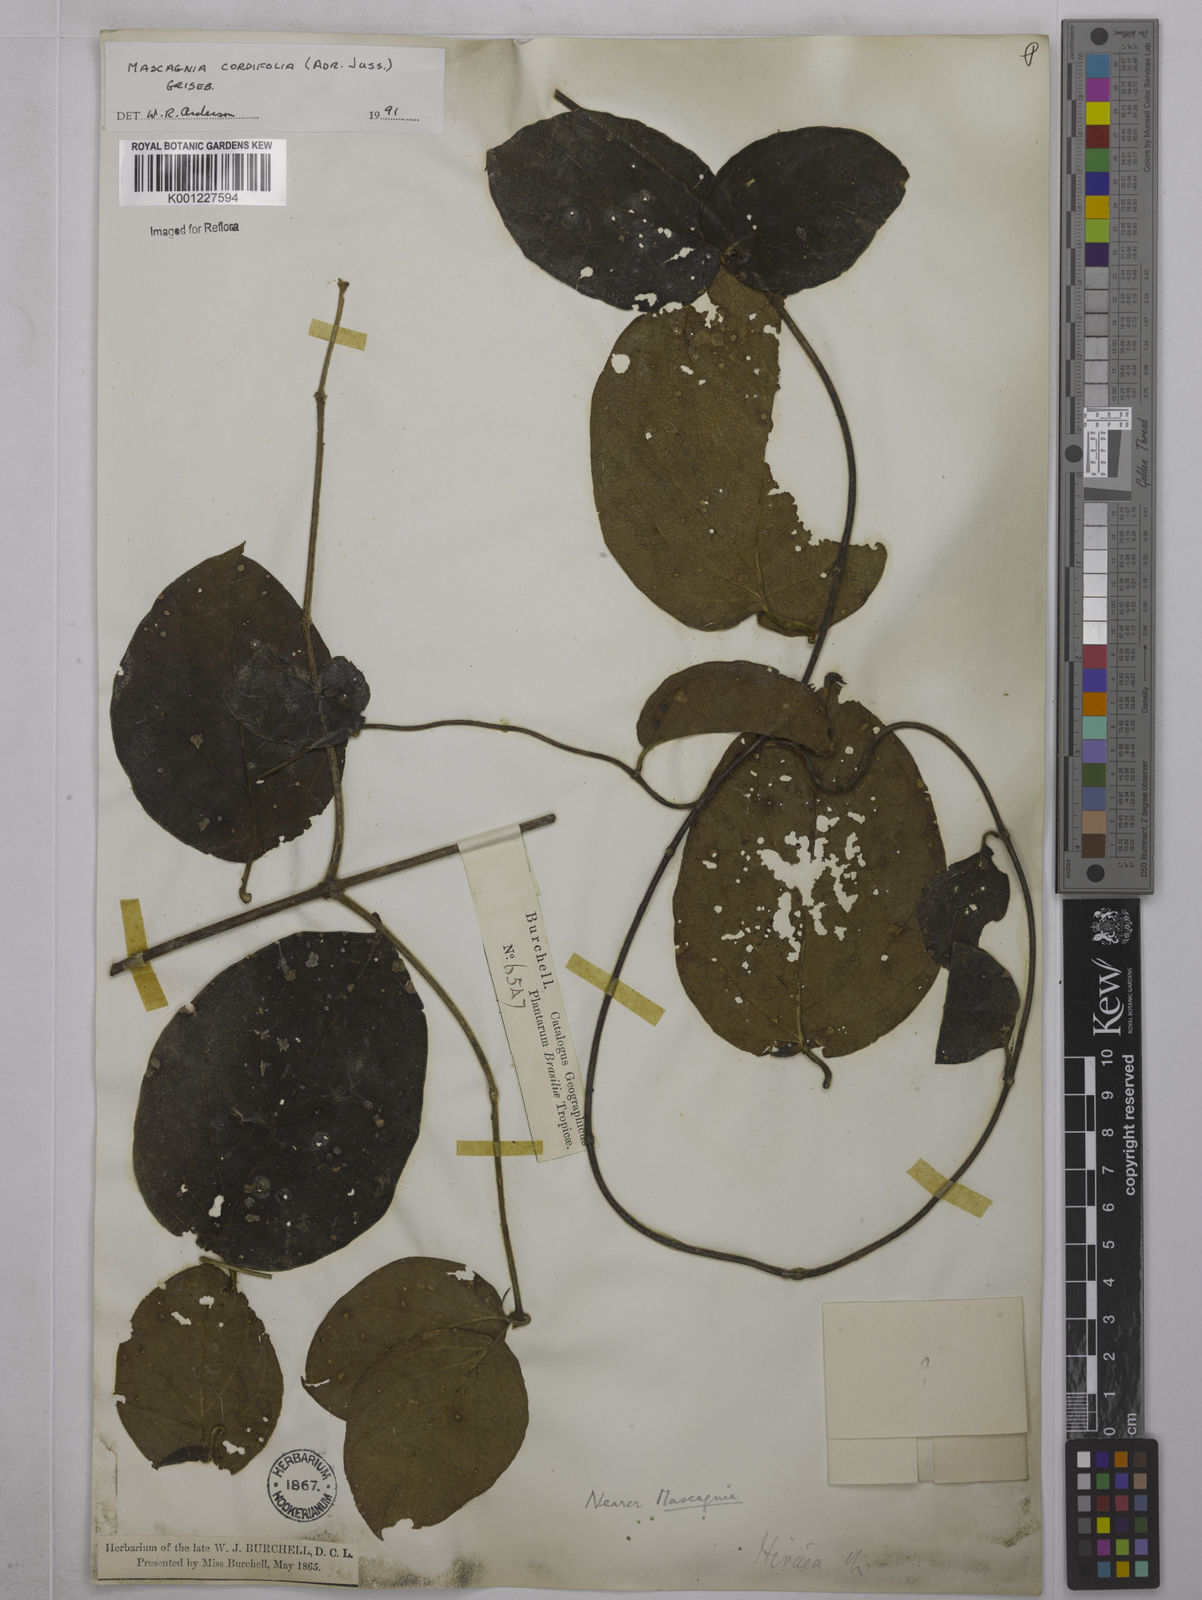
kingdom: Plantae
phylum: Tracheophyta
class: Magnoliopsida
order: Malpighiales
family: Malpighiaceae
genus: Mascagnia
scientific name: Mascagnia cordifolia
